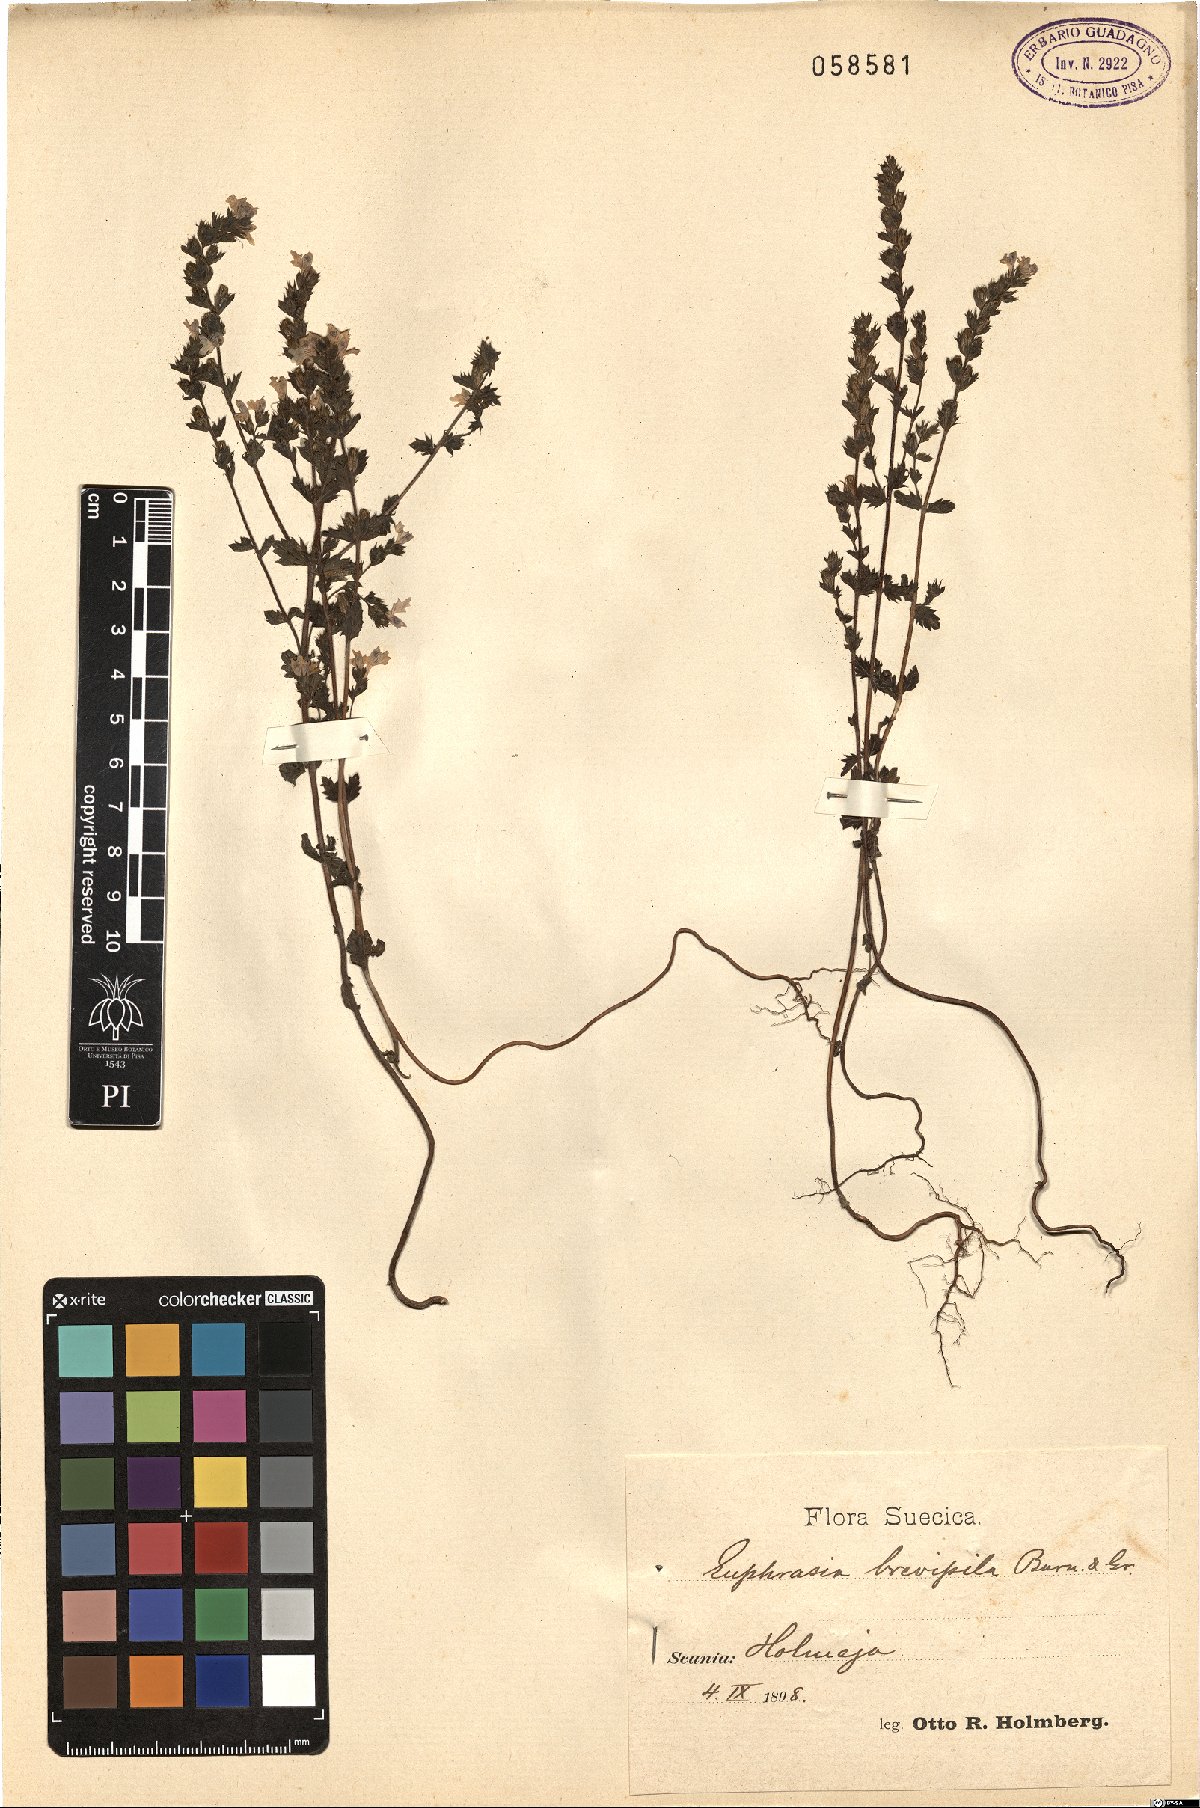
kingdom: Plantae
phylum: Tracheophyta
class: Magnoliopsida
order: Lamiales
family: Orobanchaceae
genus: Euphrasia
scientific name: Euphrasia vernalis
